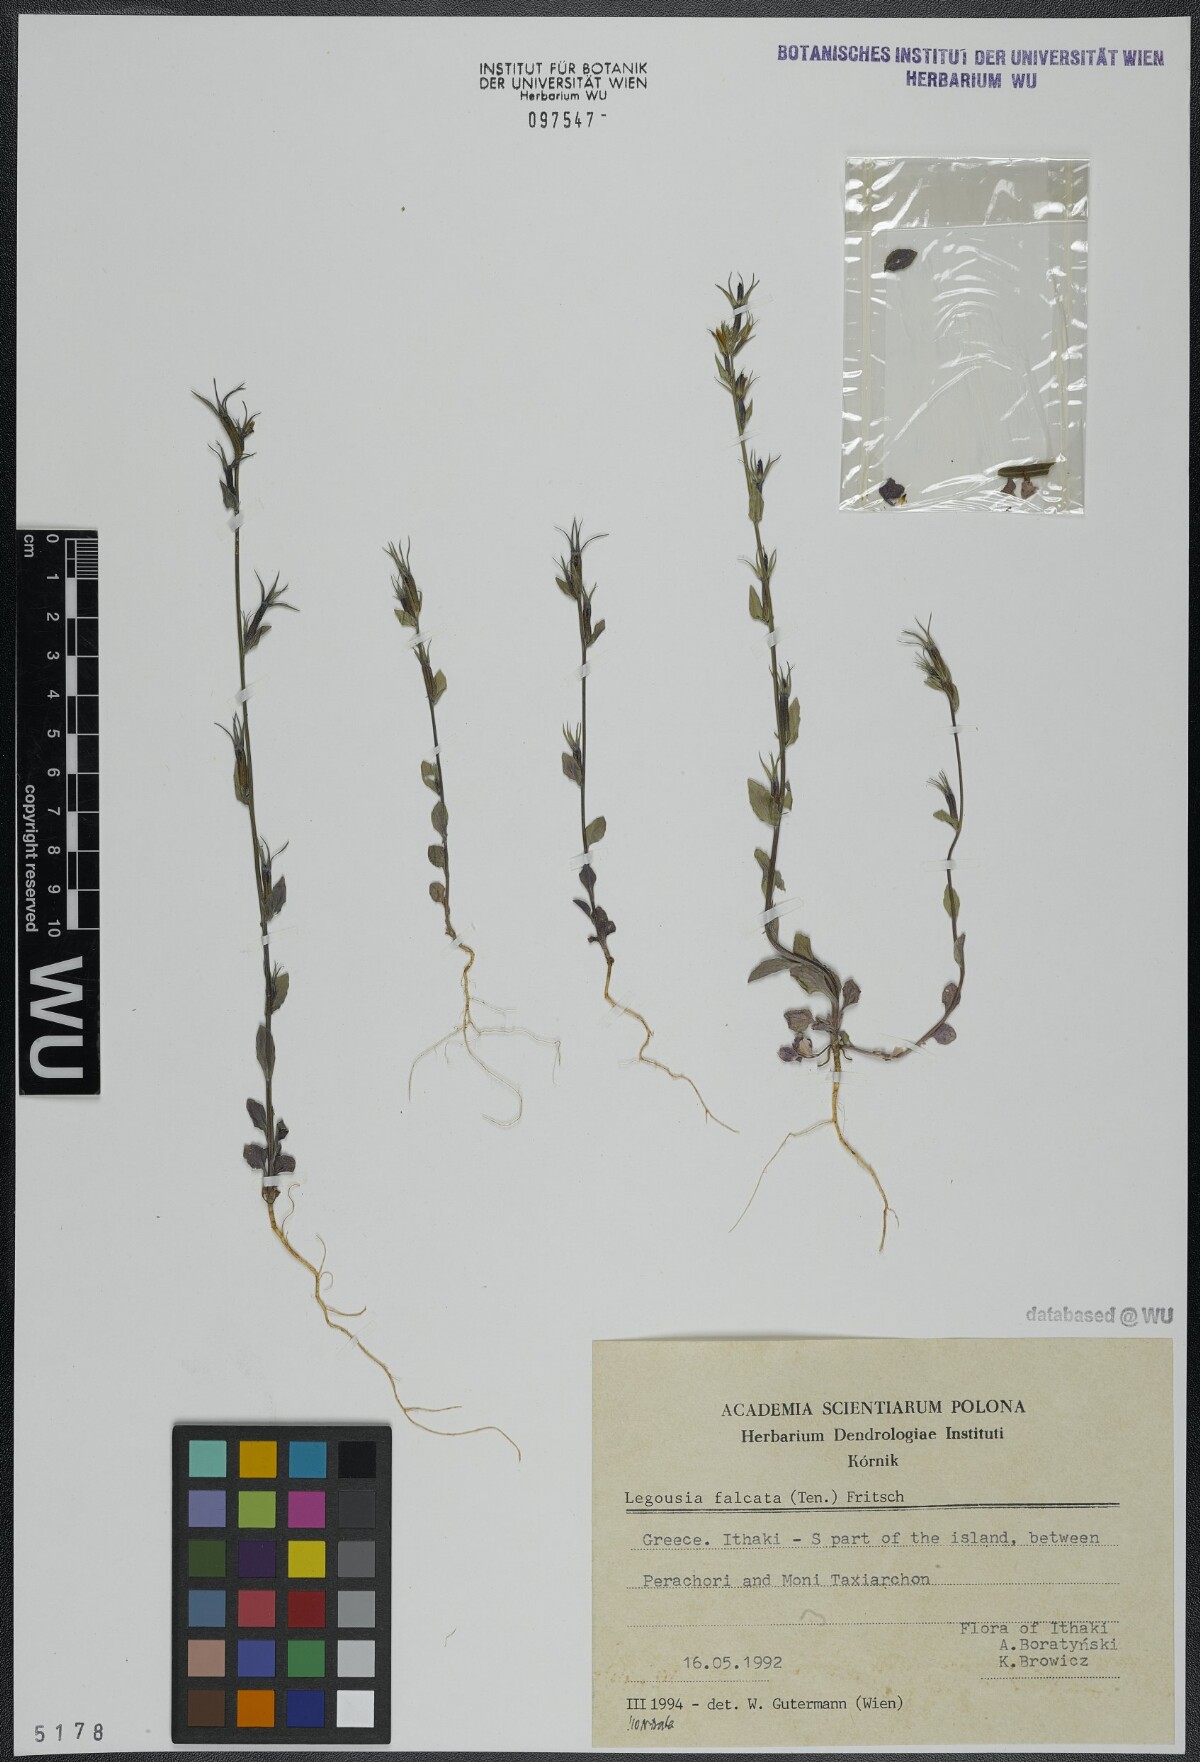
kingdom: Plantae
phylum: Tracheophyta
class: Magnoliopsida
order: Asterales
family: Campanulaceae
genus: Legousia
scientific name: Legousia falcata
